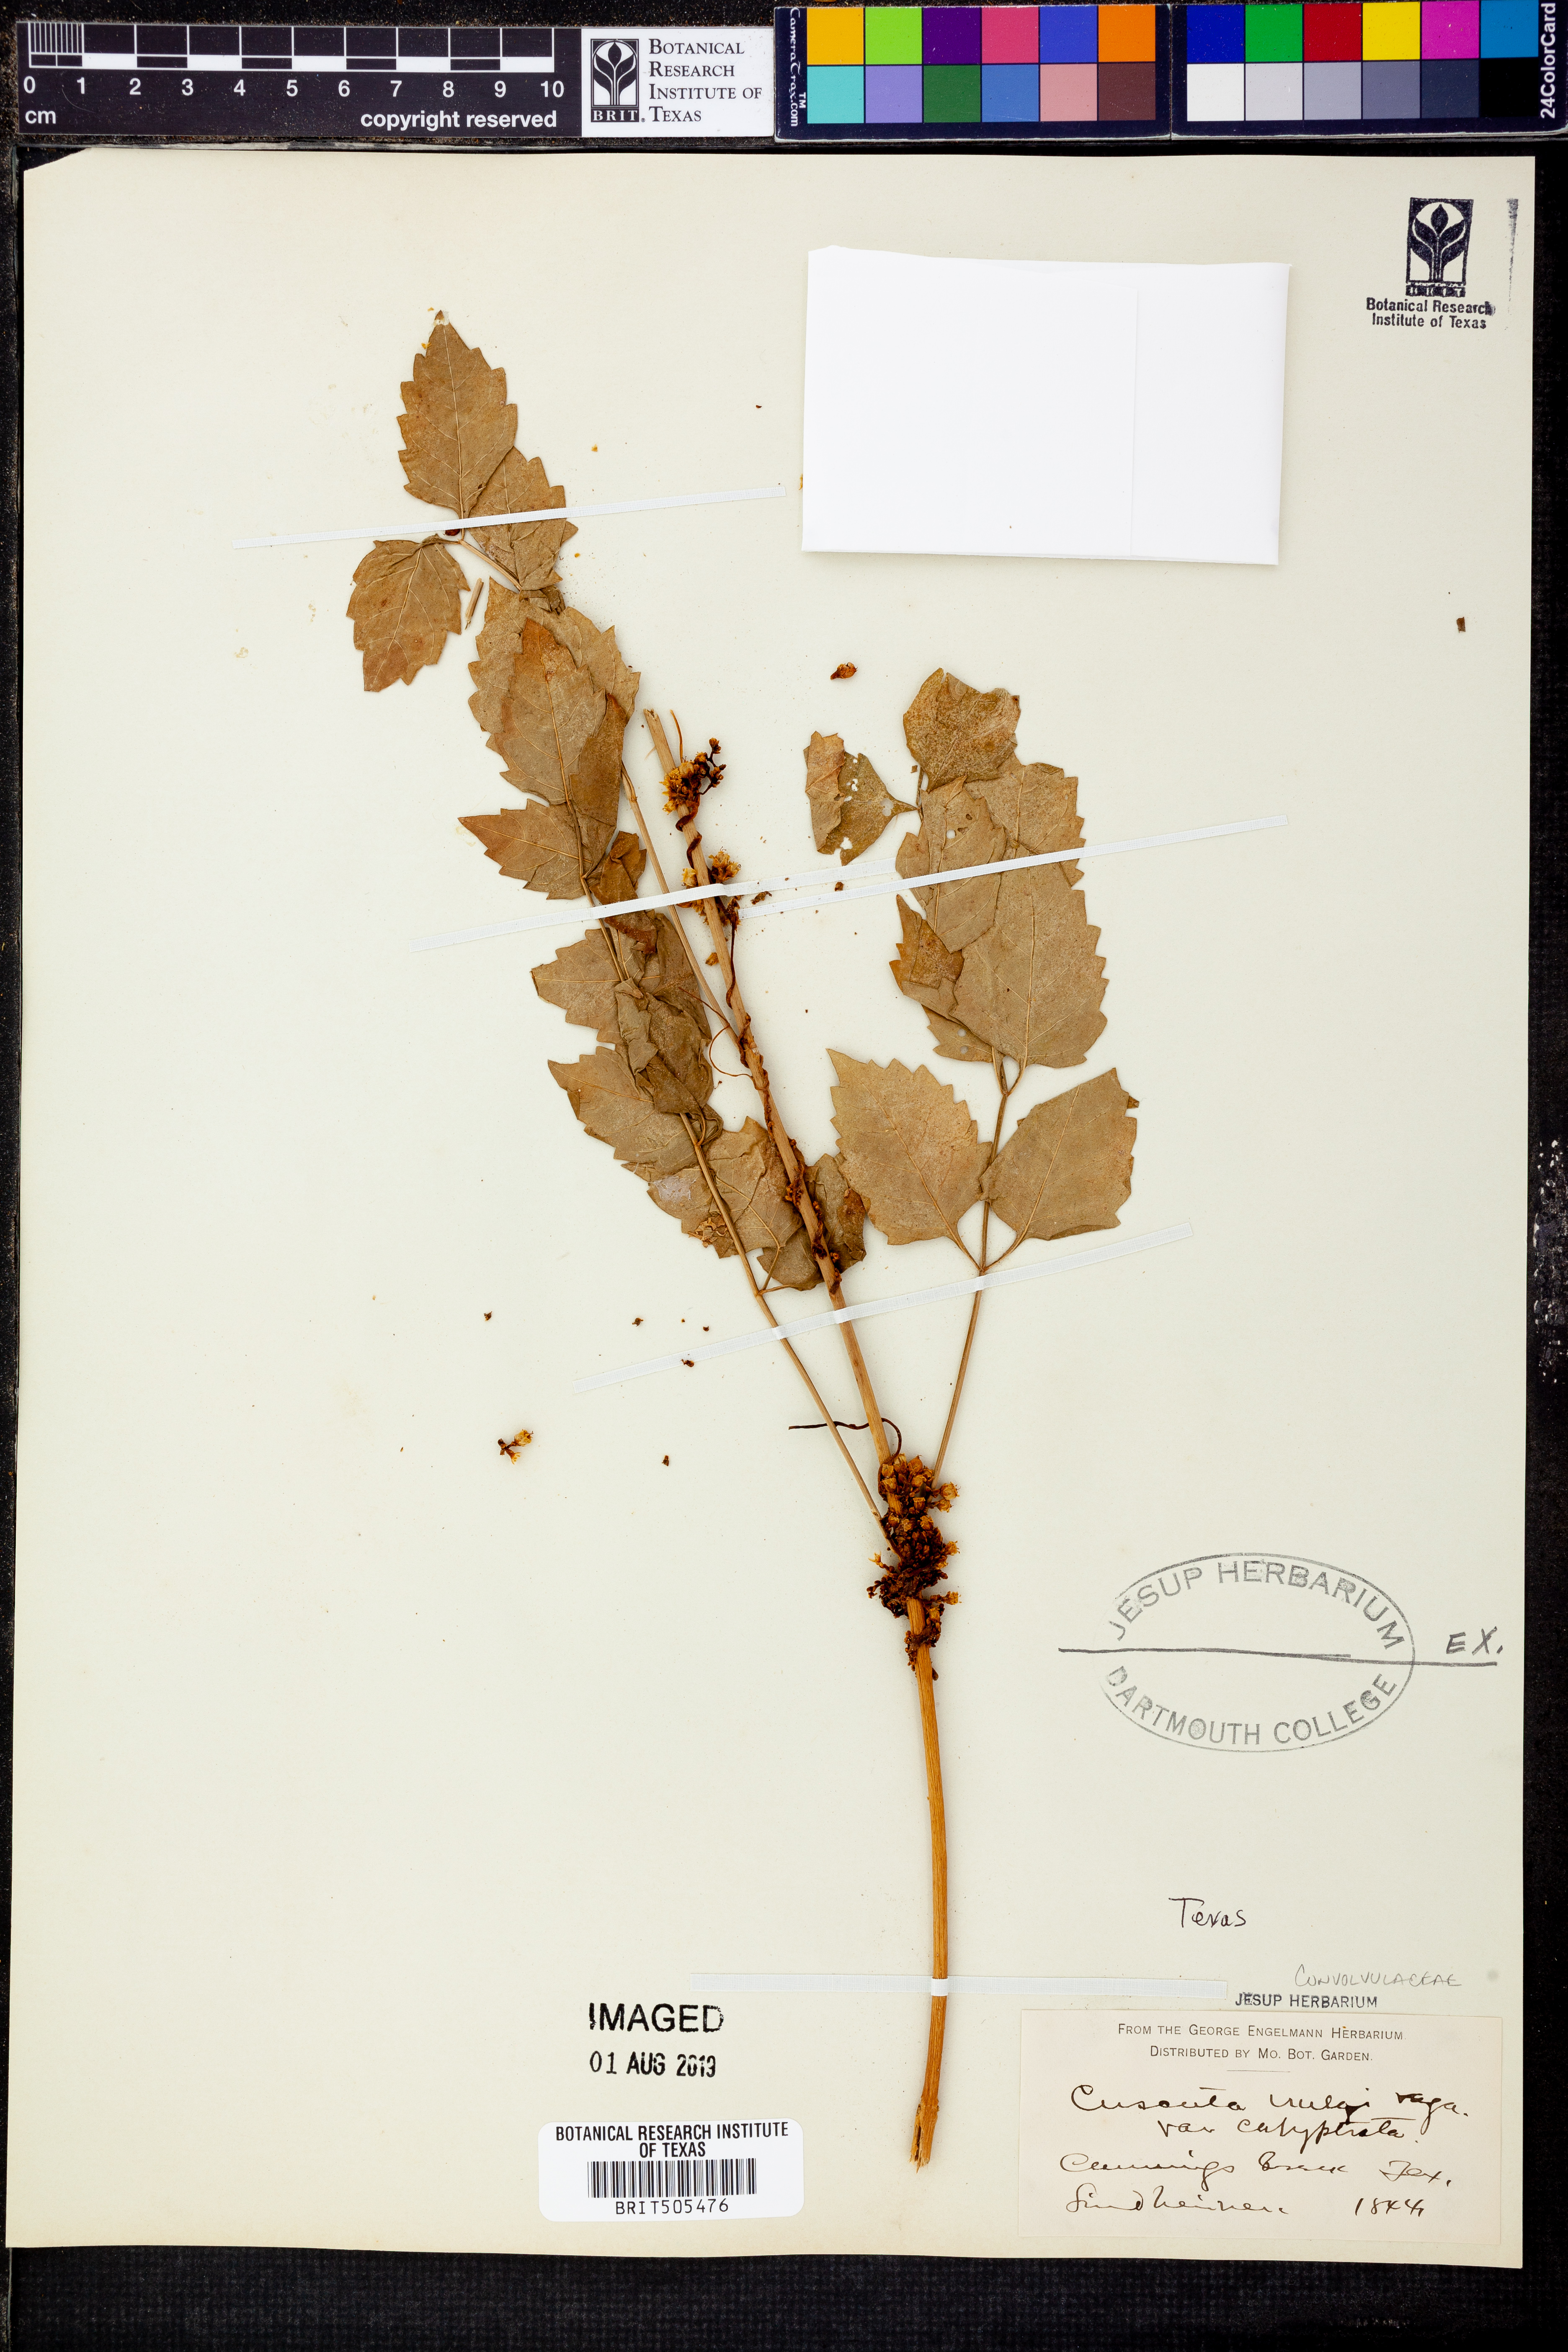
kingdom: Plantae
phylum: Tracheophyta
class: Magnoliopsida
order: Solanales
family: Convolvulaceae
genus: Cuscuta
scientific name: Cuscuta gronovii
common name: Common dodder
